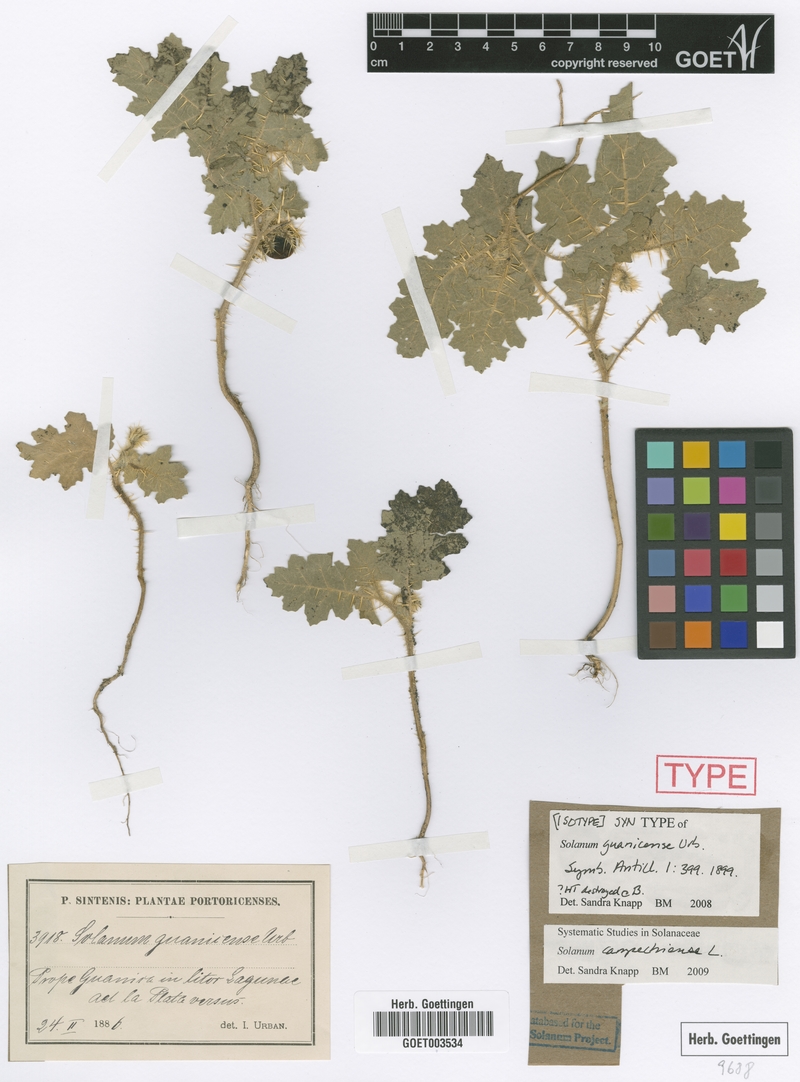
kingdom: Plantae
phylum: Tracheophyta
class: Magnoliopsida
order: Solanales
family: Solanaceae
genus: Solanum
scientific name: Solanum campechiense
